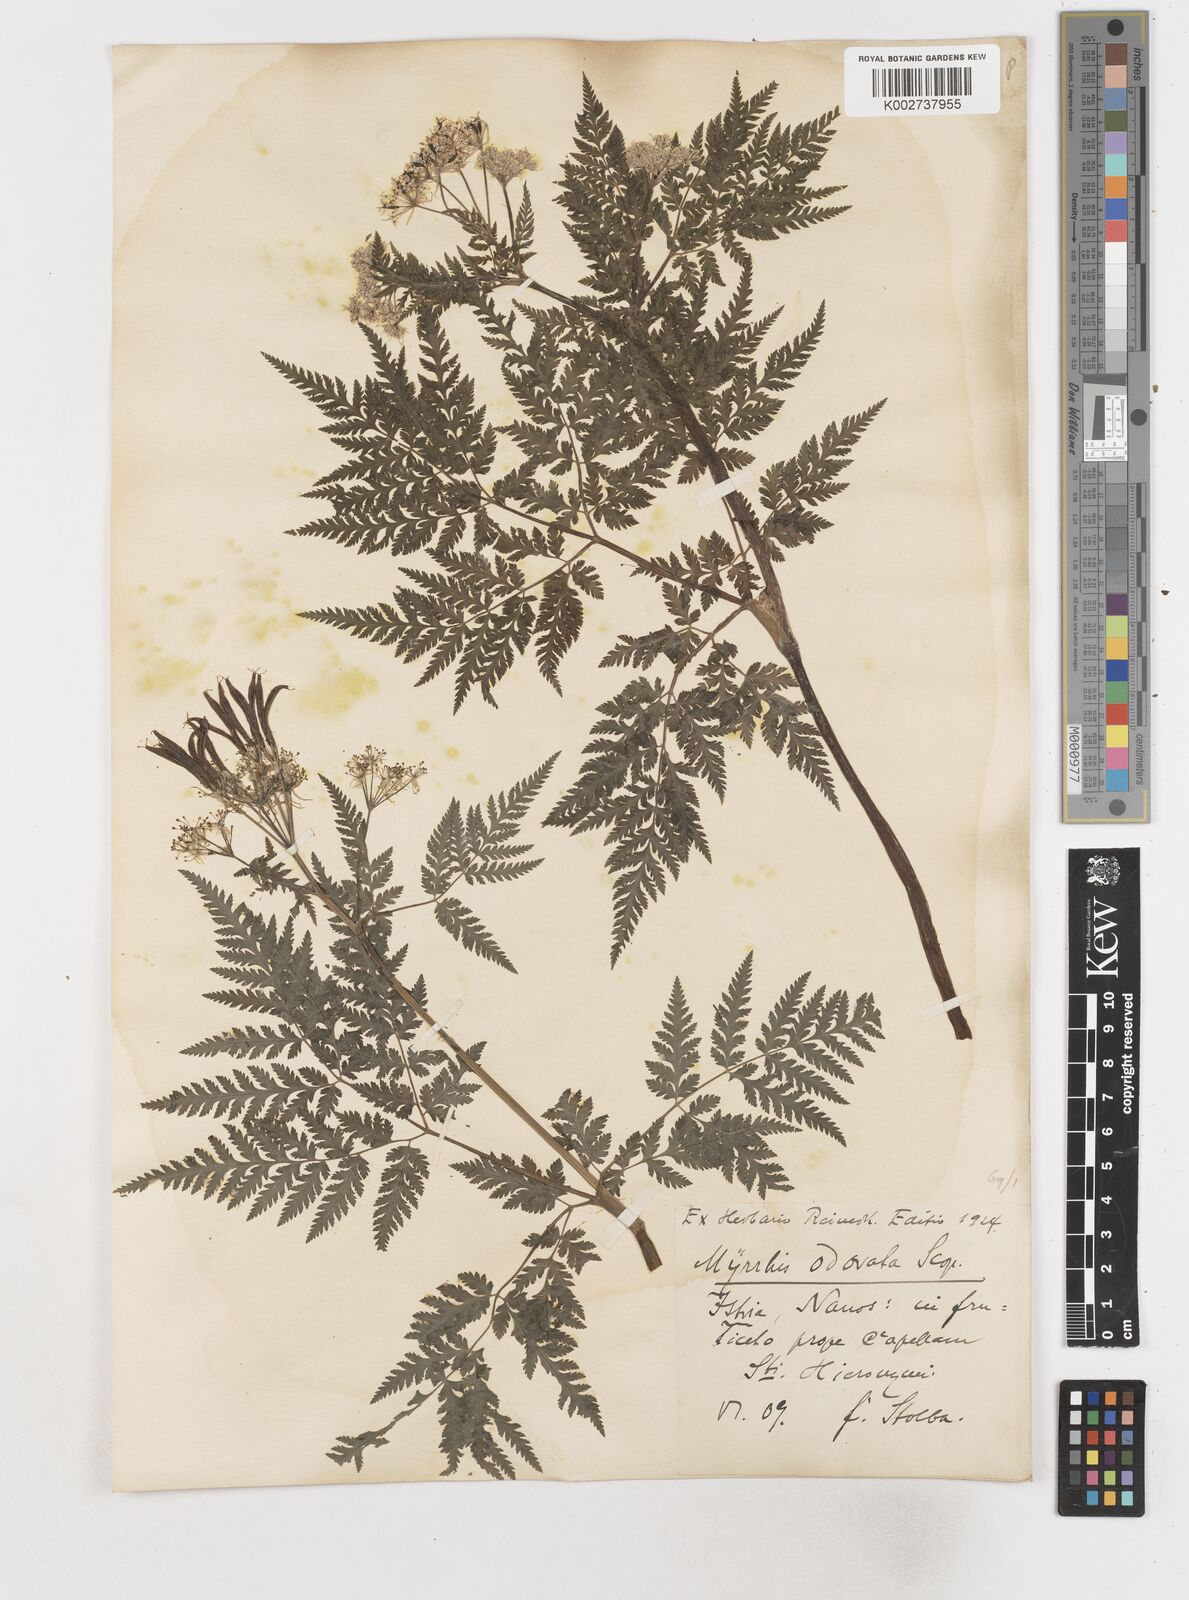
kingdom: Plantae
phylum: Tracheophyta
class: Magnoliopsida
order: Apiales
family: Apiaceae
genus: Myrrhis
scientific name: Myrrhis odorata
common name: Sweet cicely
